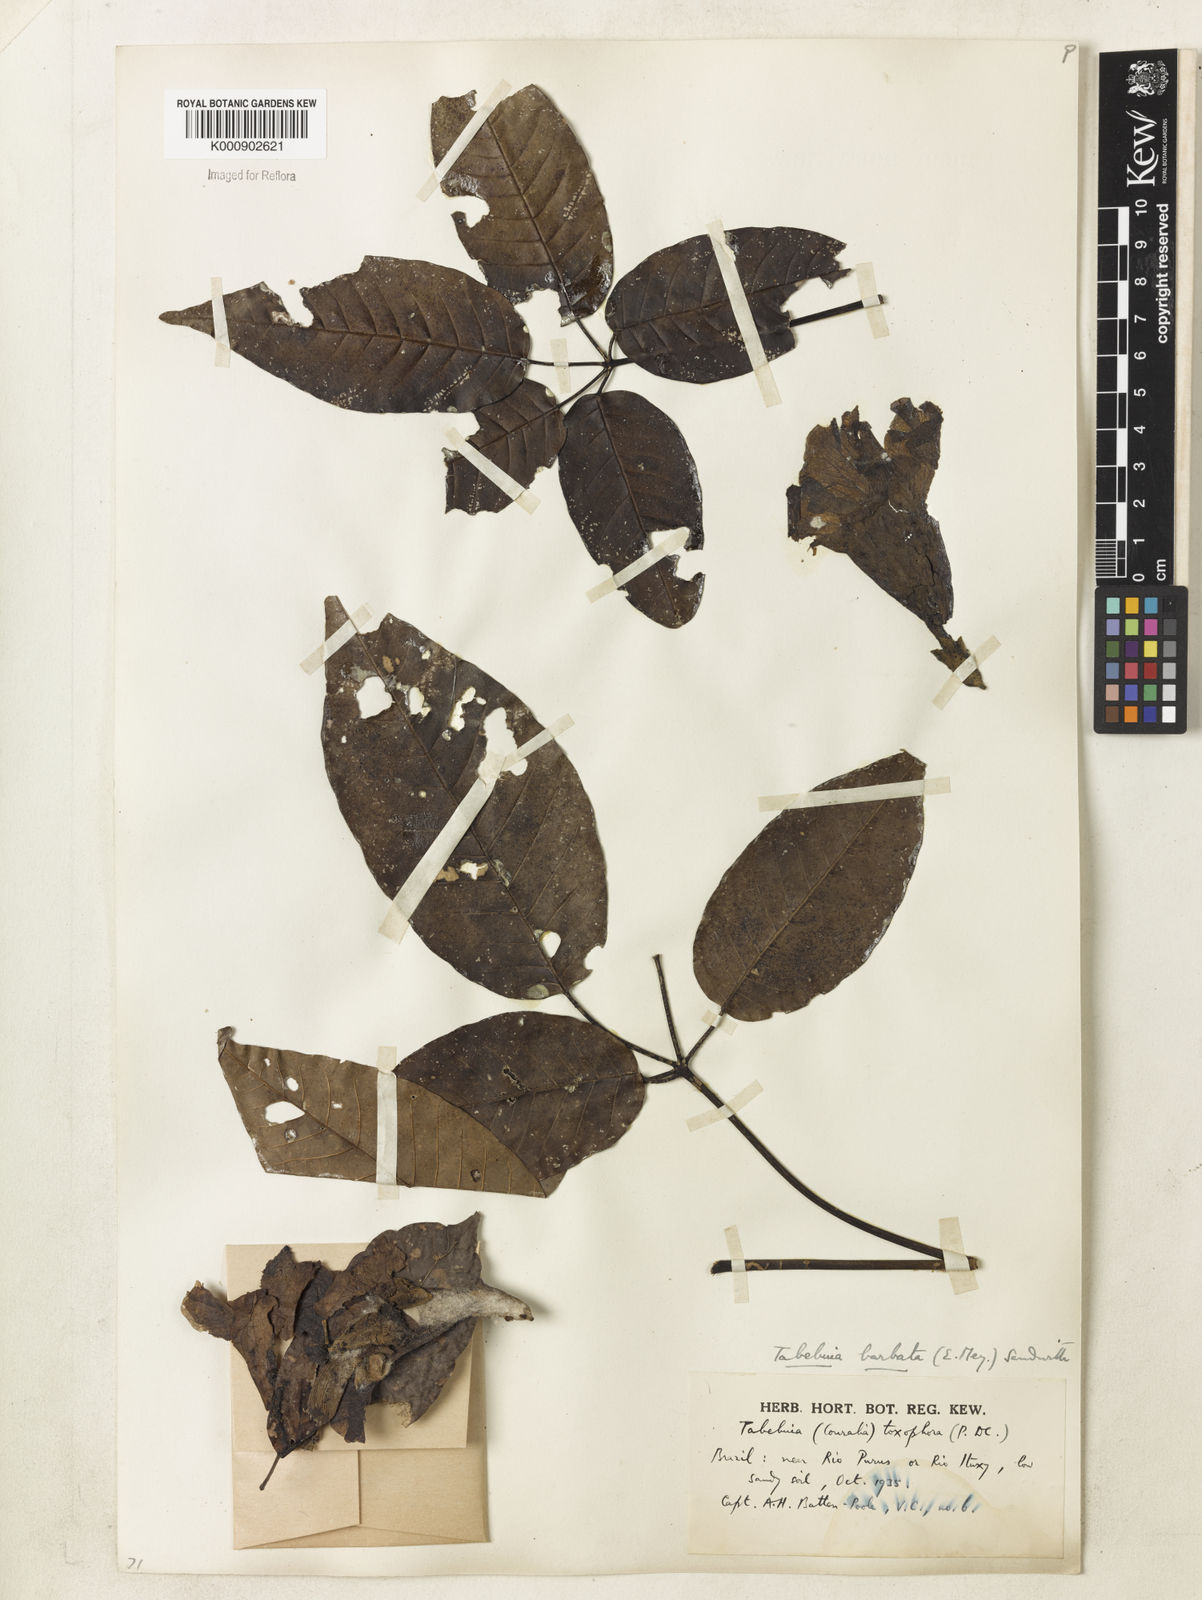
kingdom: Plantae
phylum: Tracheophyta
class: Magnoliopsida
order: Lamiales
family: Bignoniaceae
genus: Handroanthus
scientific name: Handroanthus barbatus
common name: Trumpet trees
